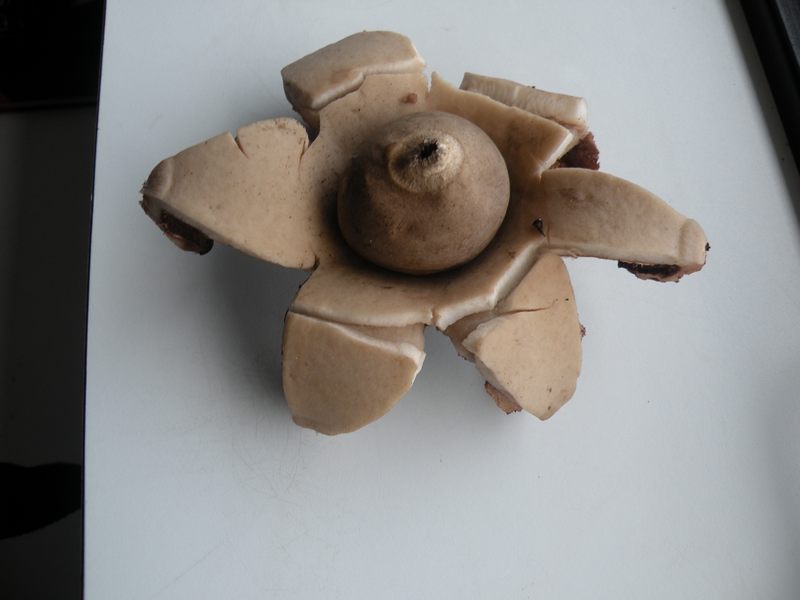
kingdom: Fungi
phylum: Basidiomycota
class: Agaricomycetes
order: Geastrales
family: Geastraceae
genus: Geastrum
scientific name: Geastrum michelianum
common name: kødet stjernebold
